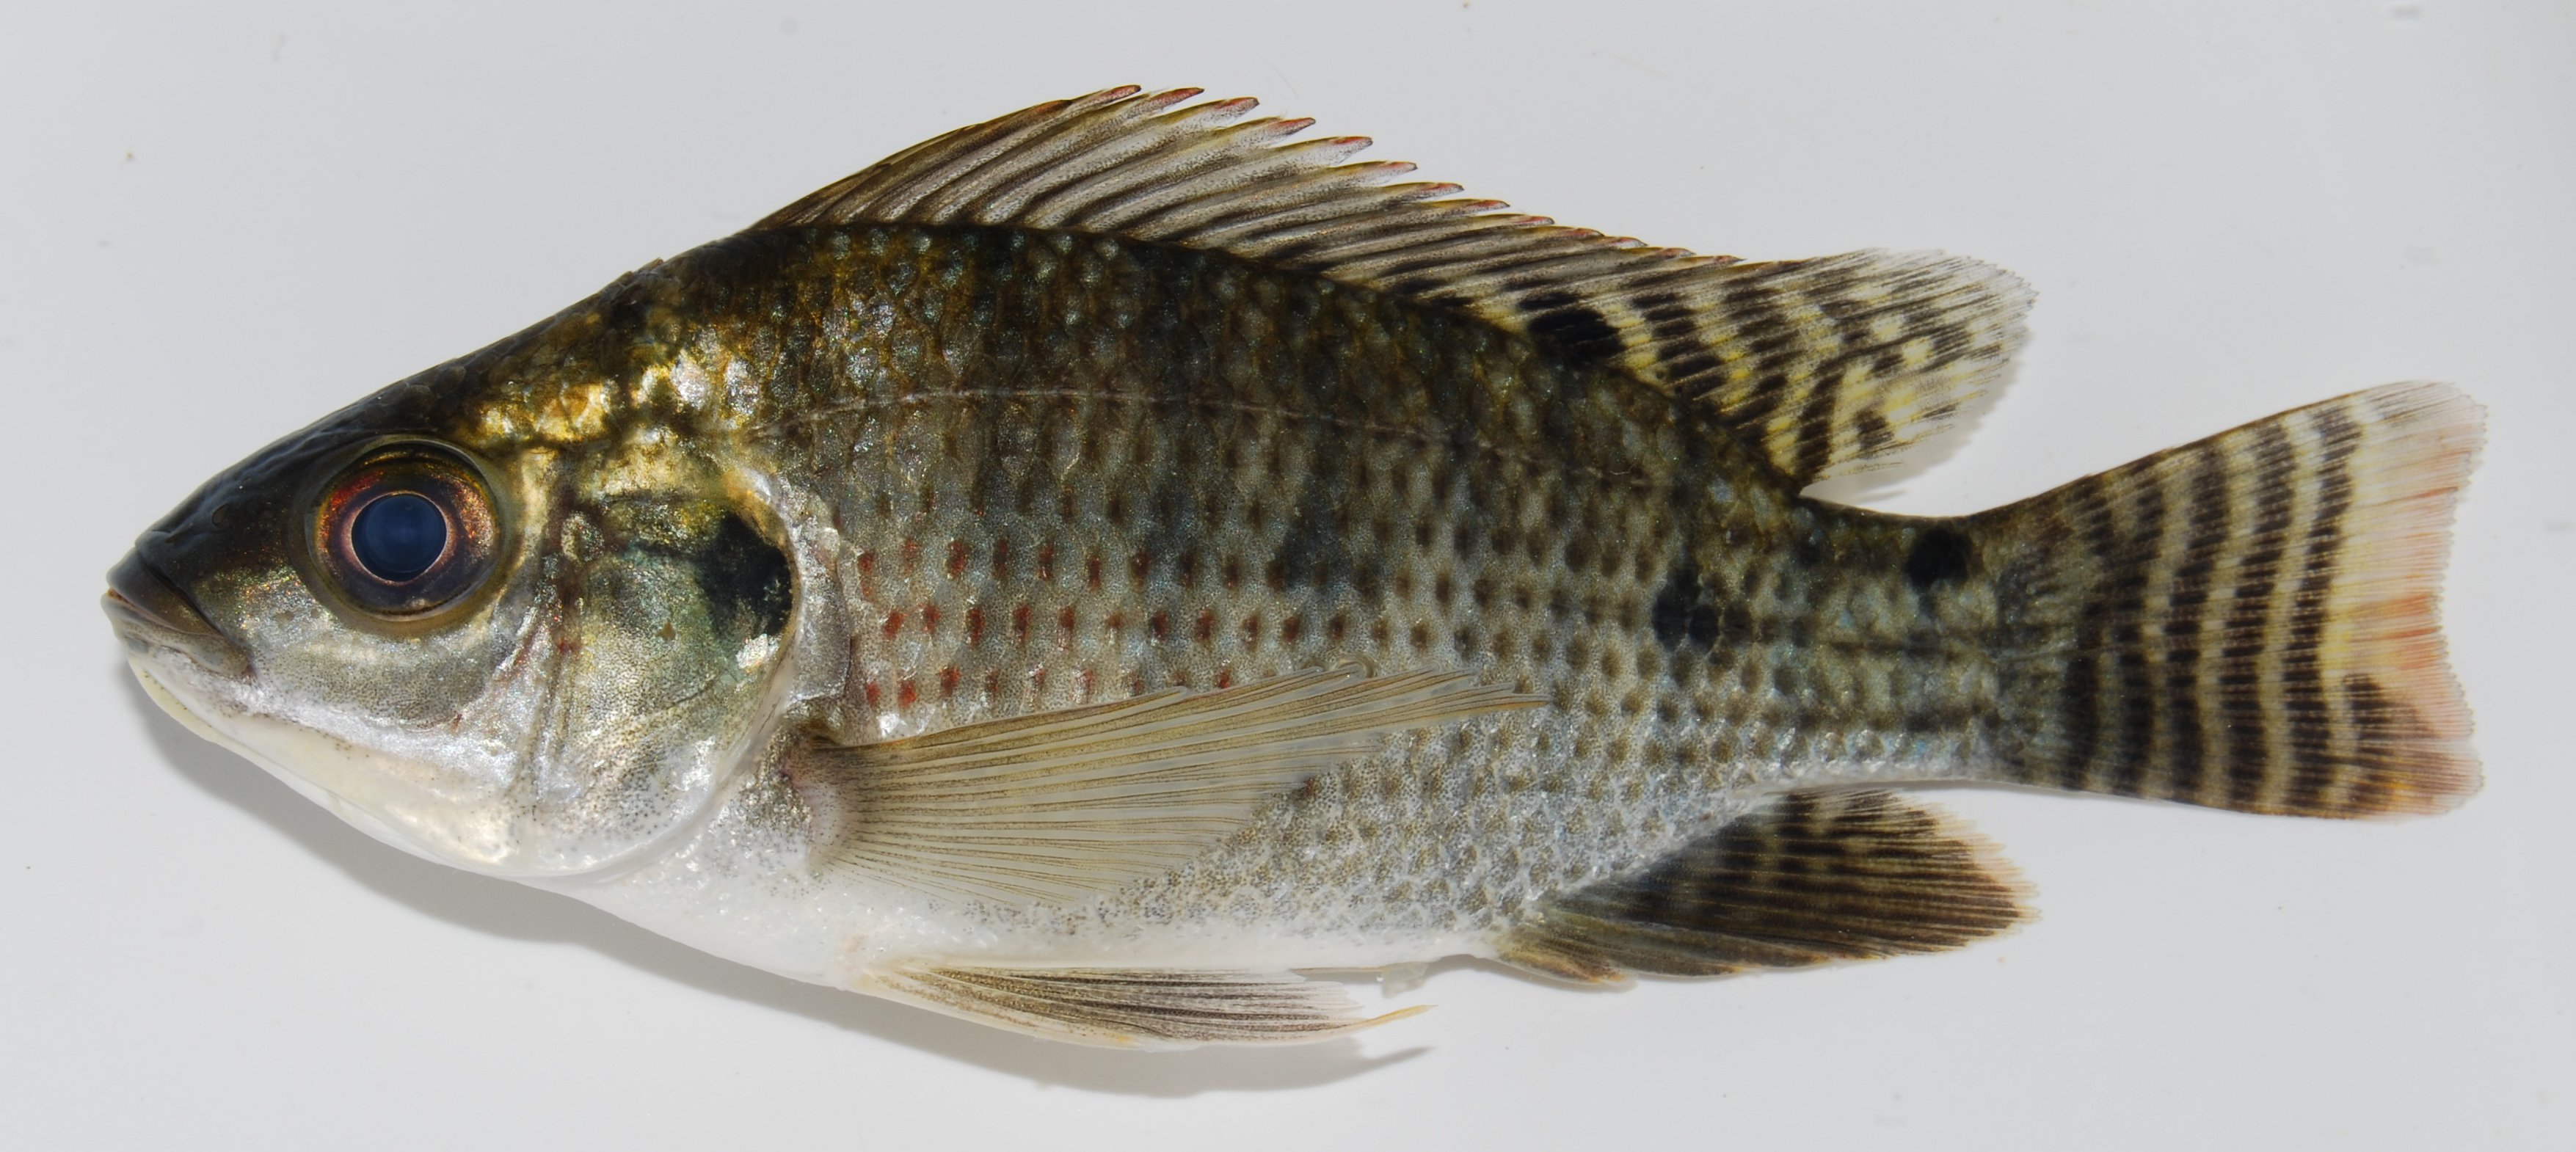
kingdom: Animalia
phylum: Chordata
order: Perciformes
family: Cichlidae
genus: Oreochromis
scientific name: Oreochromis niloticus
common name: Nile tilapia
